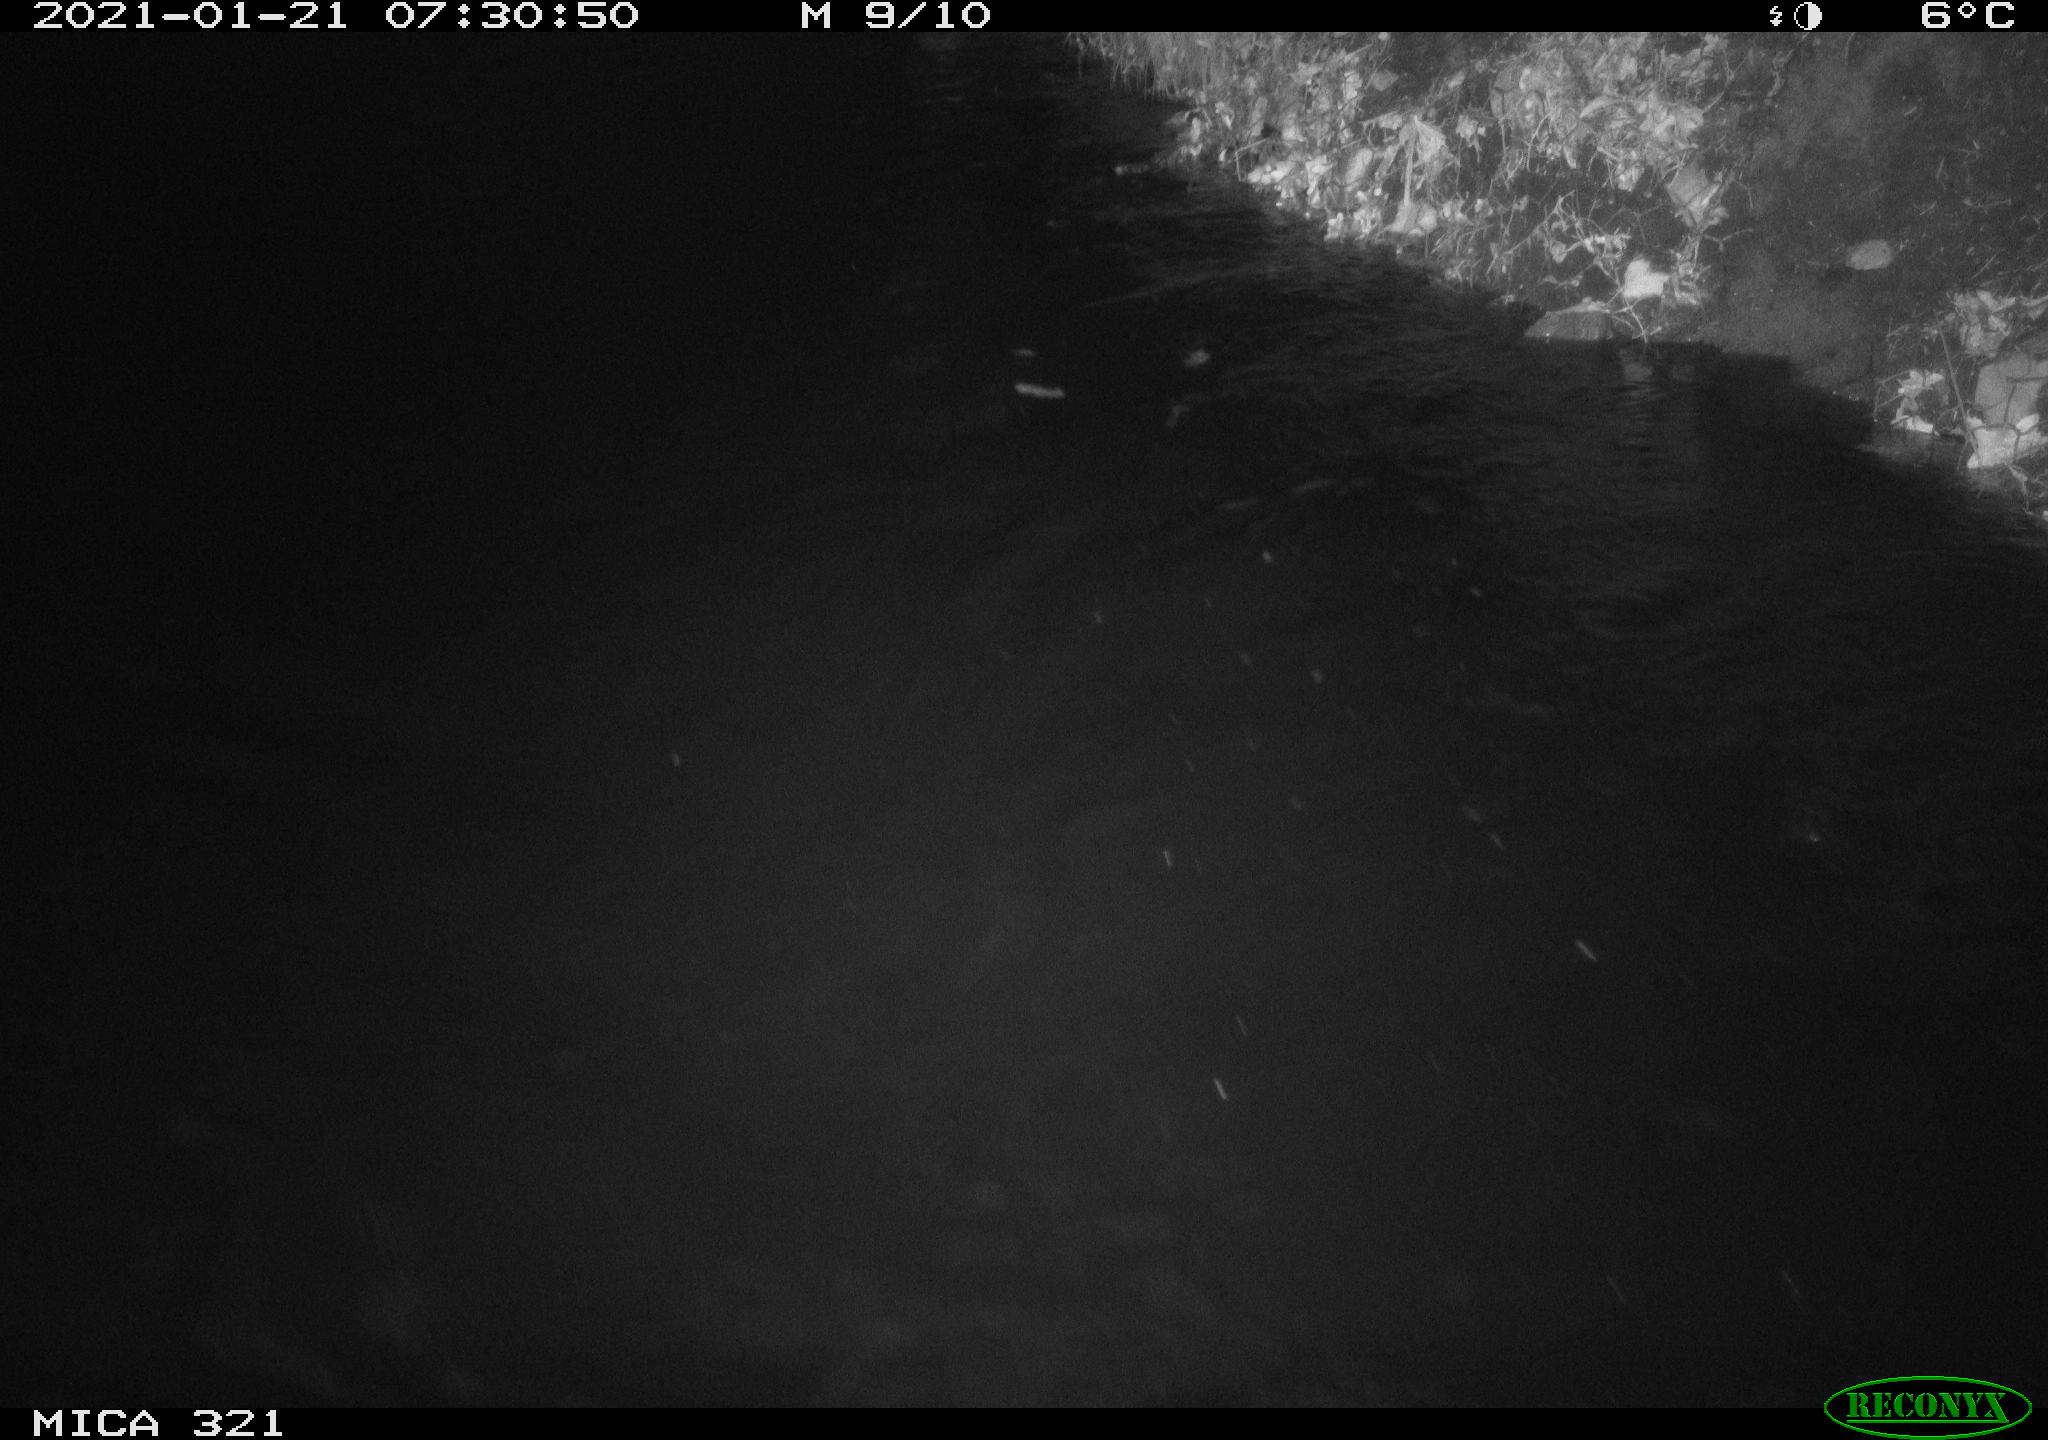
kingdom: Animalia
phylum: Chordata
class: Aves
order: Anseriformes
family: Anatidae
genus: Anas
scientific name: Anas platyrhynchos
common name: Mallard
